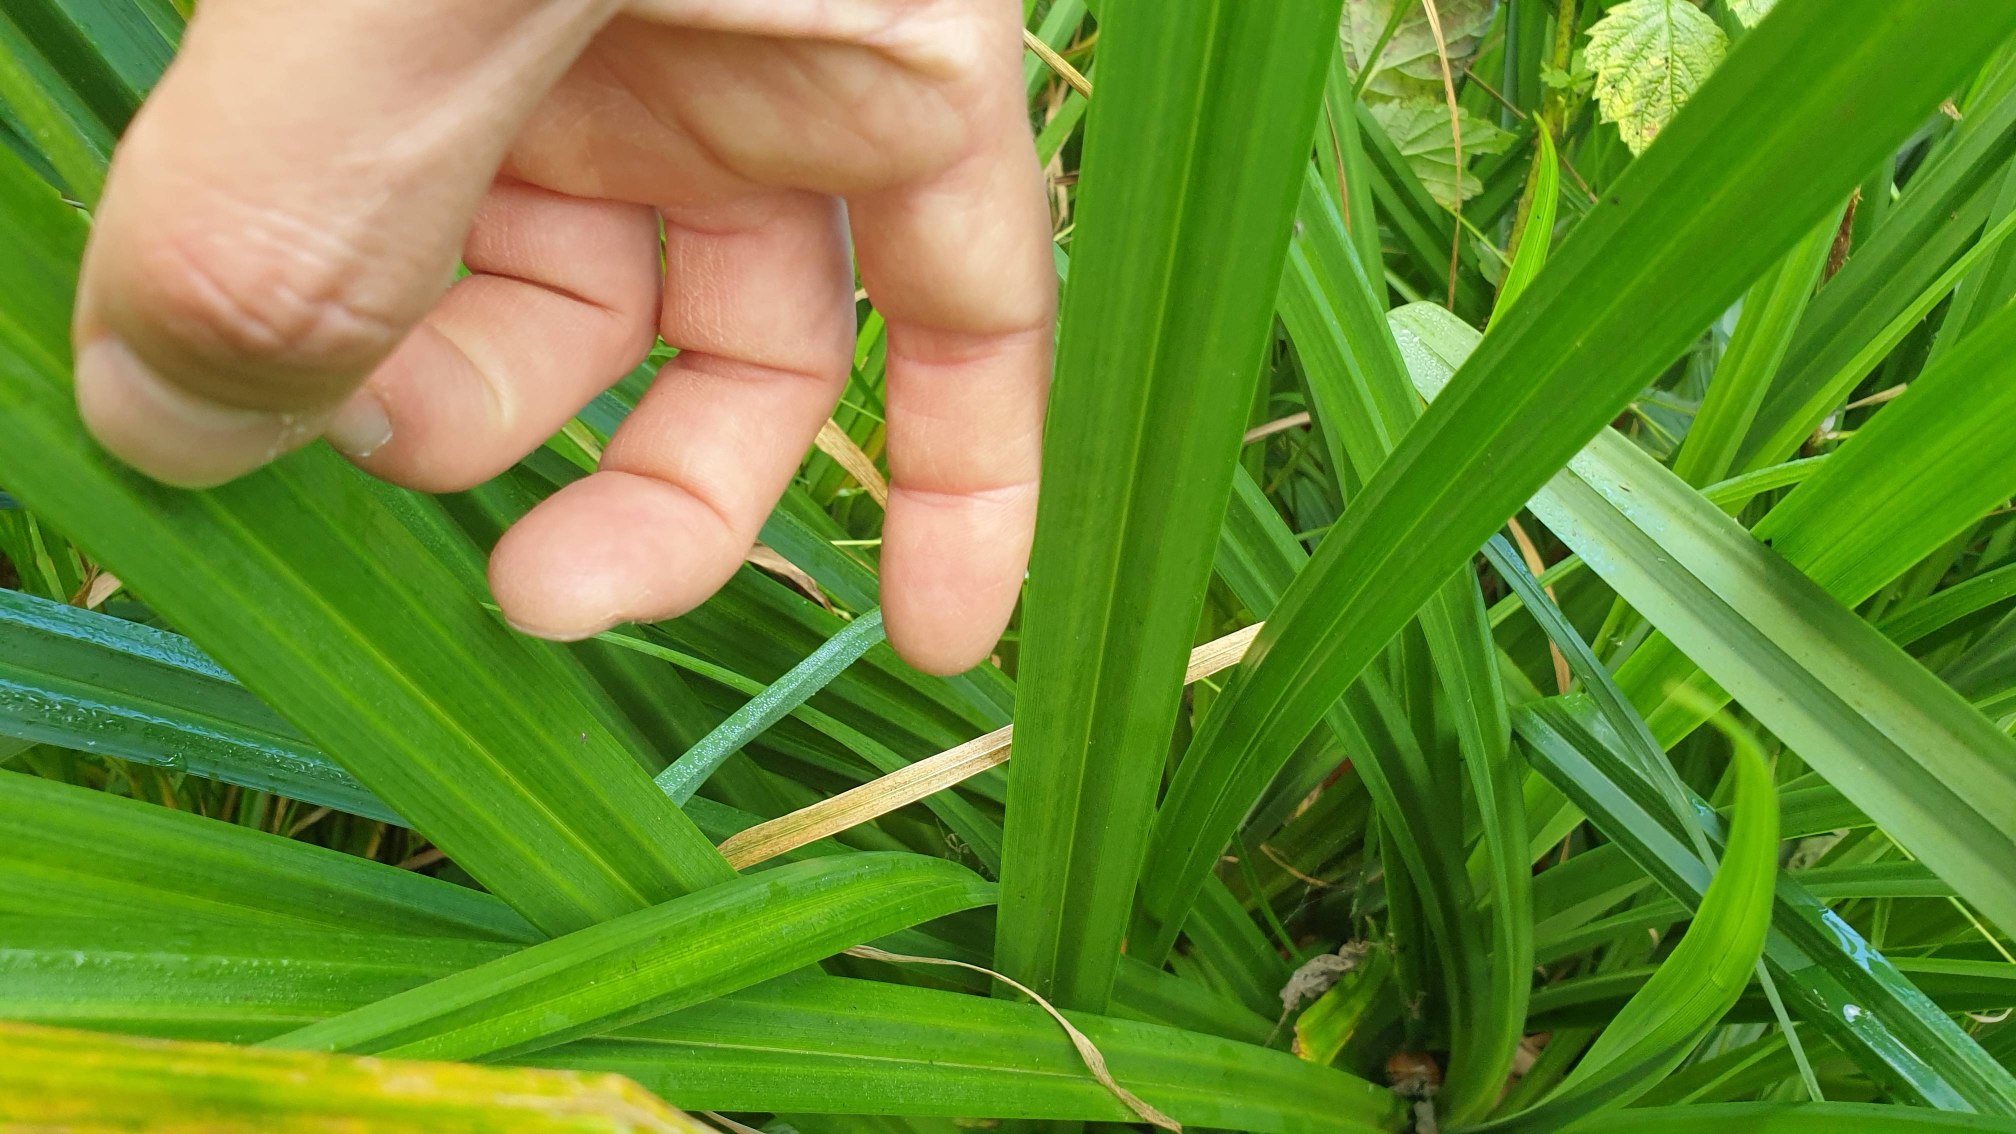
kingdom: Plantae
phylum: Tracheophyta
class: Liliopsida
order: Poales
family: Cyperaceae
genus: Carex
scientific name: Carex pendula
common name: Kæmpe-star
